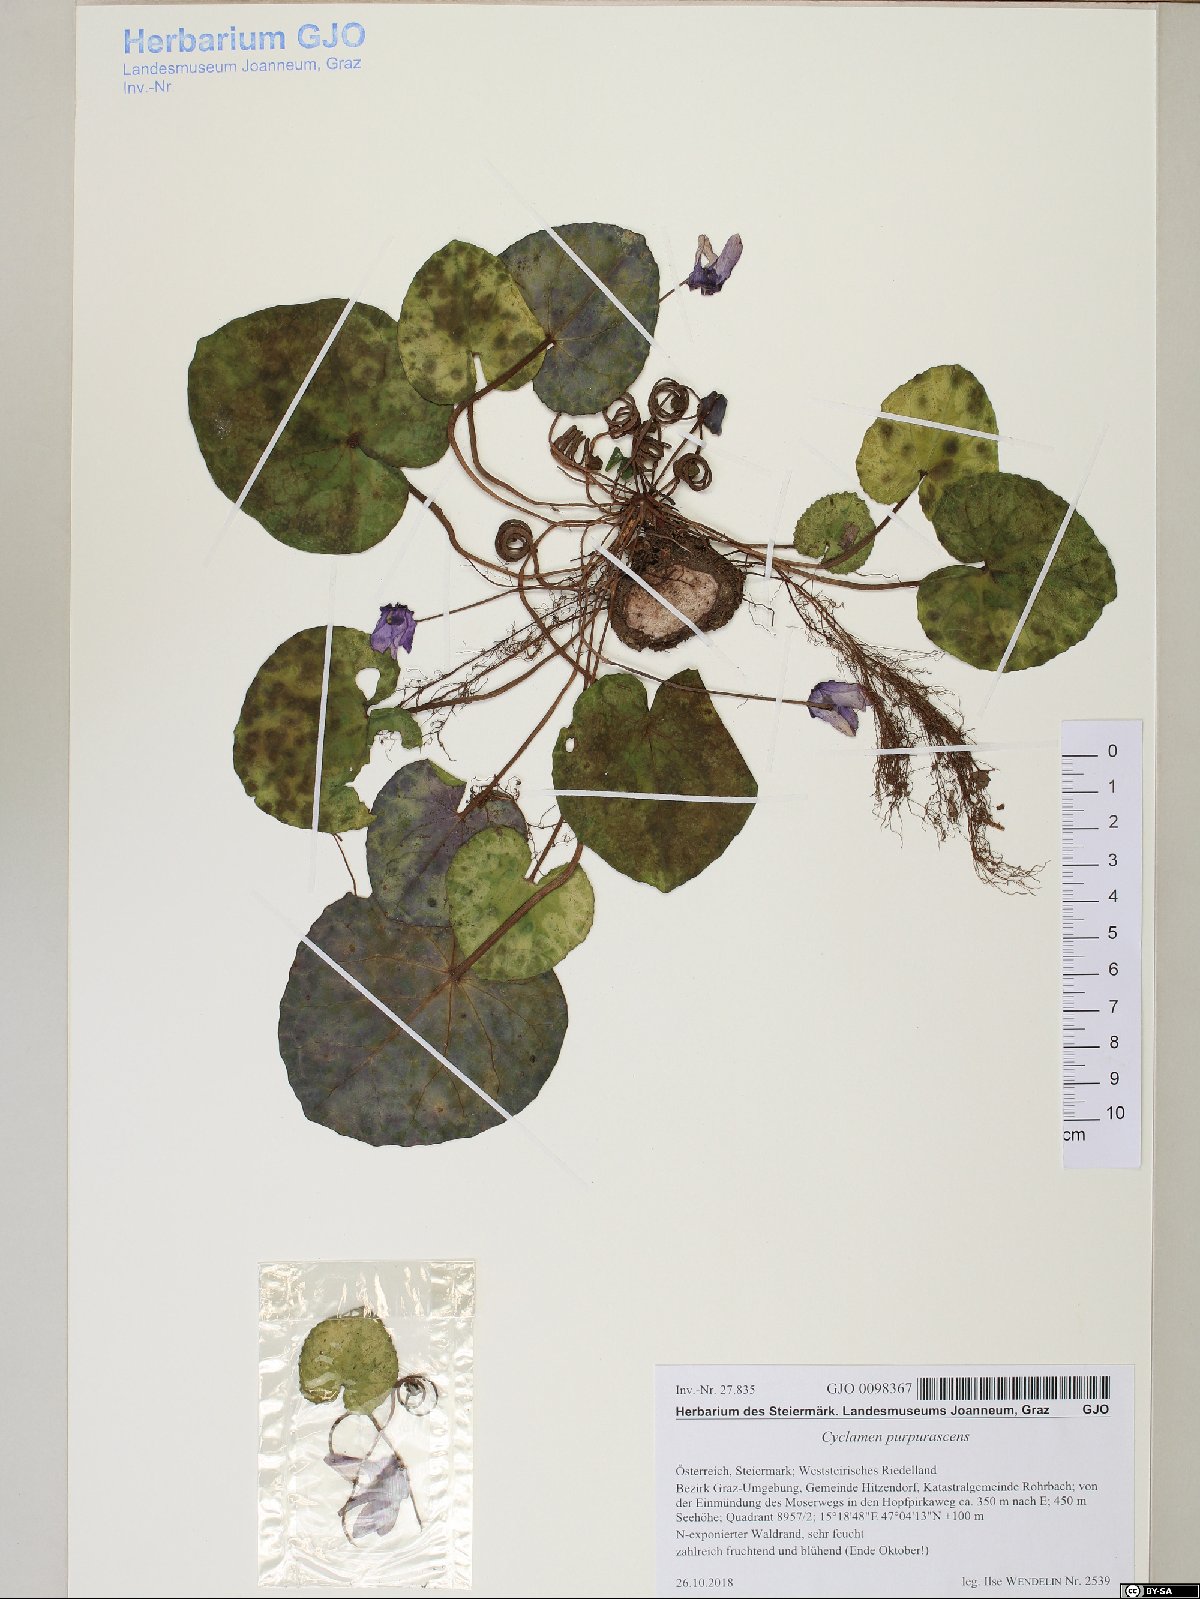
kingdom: Plantae
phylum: Tracheophyta
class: Magnoliopsida
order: Ericales
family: Primulaceae
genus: Cyclamen
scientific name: Cyclamen purpurascens
